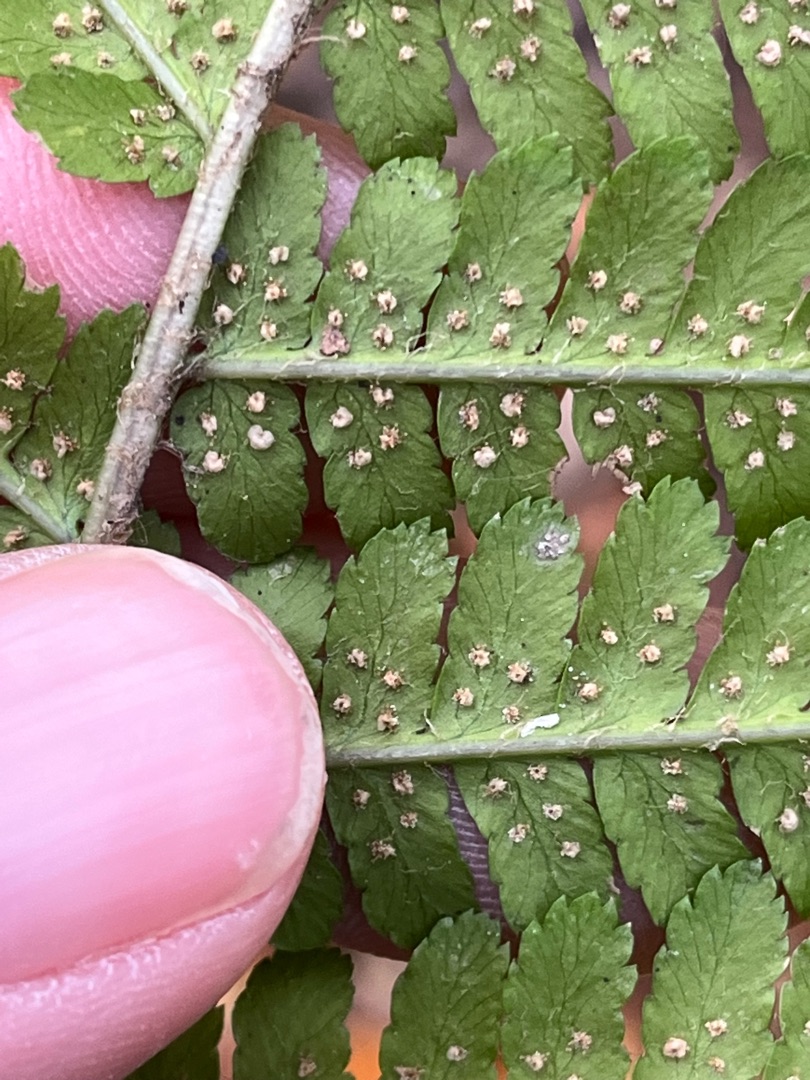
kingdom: Plantae
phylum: Tracheophyta
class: Polypodiopsida
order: Polypodiales
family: Dryopteridaceae
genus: Dryopteris
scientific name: Dryopteris filix-mas
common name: Almindelig mangeløv
